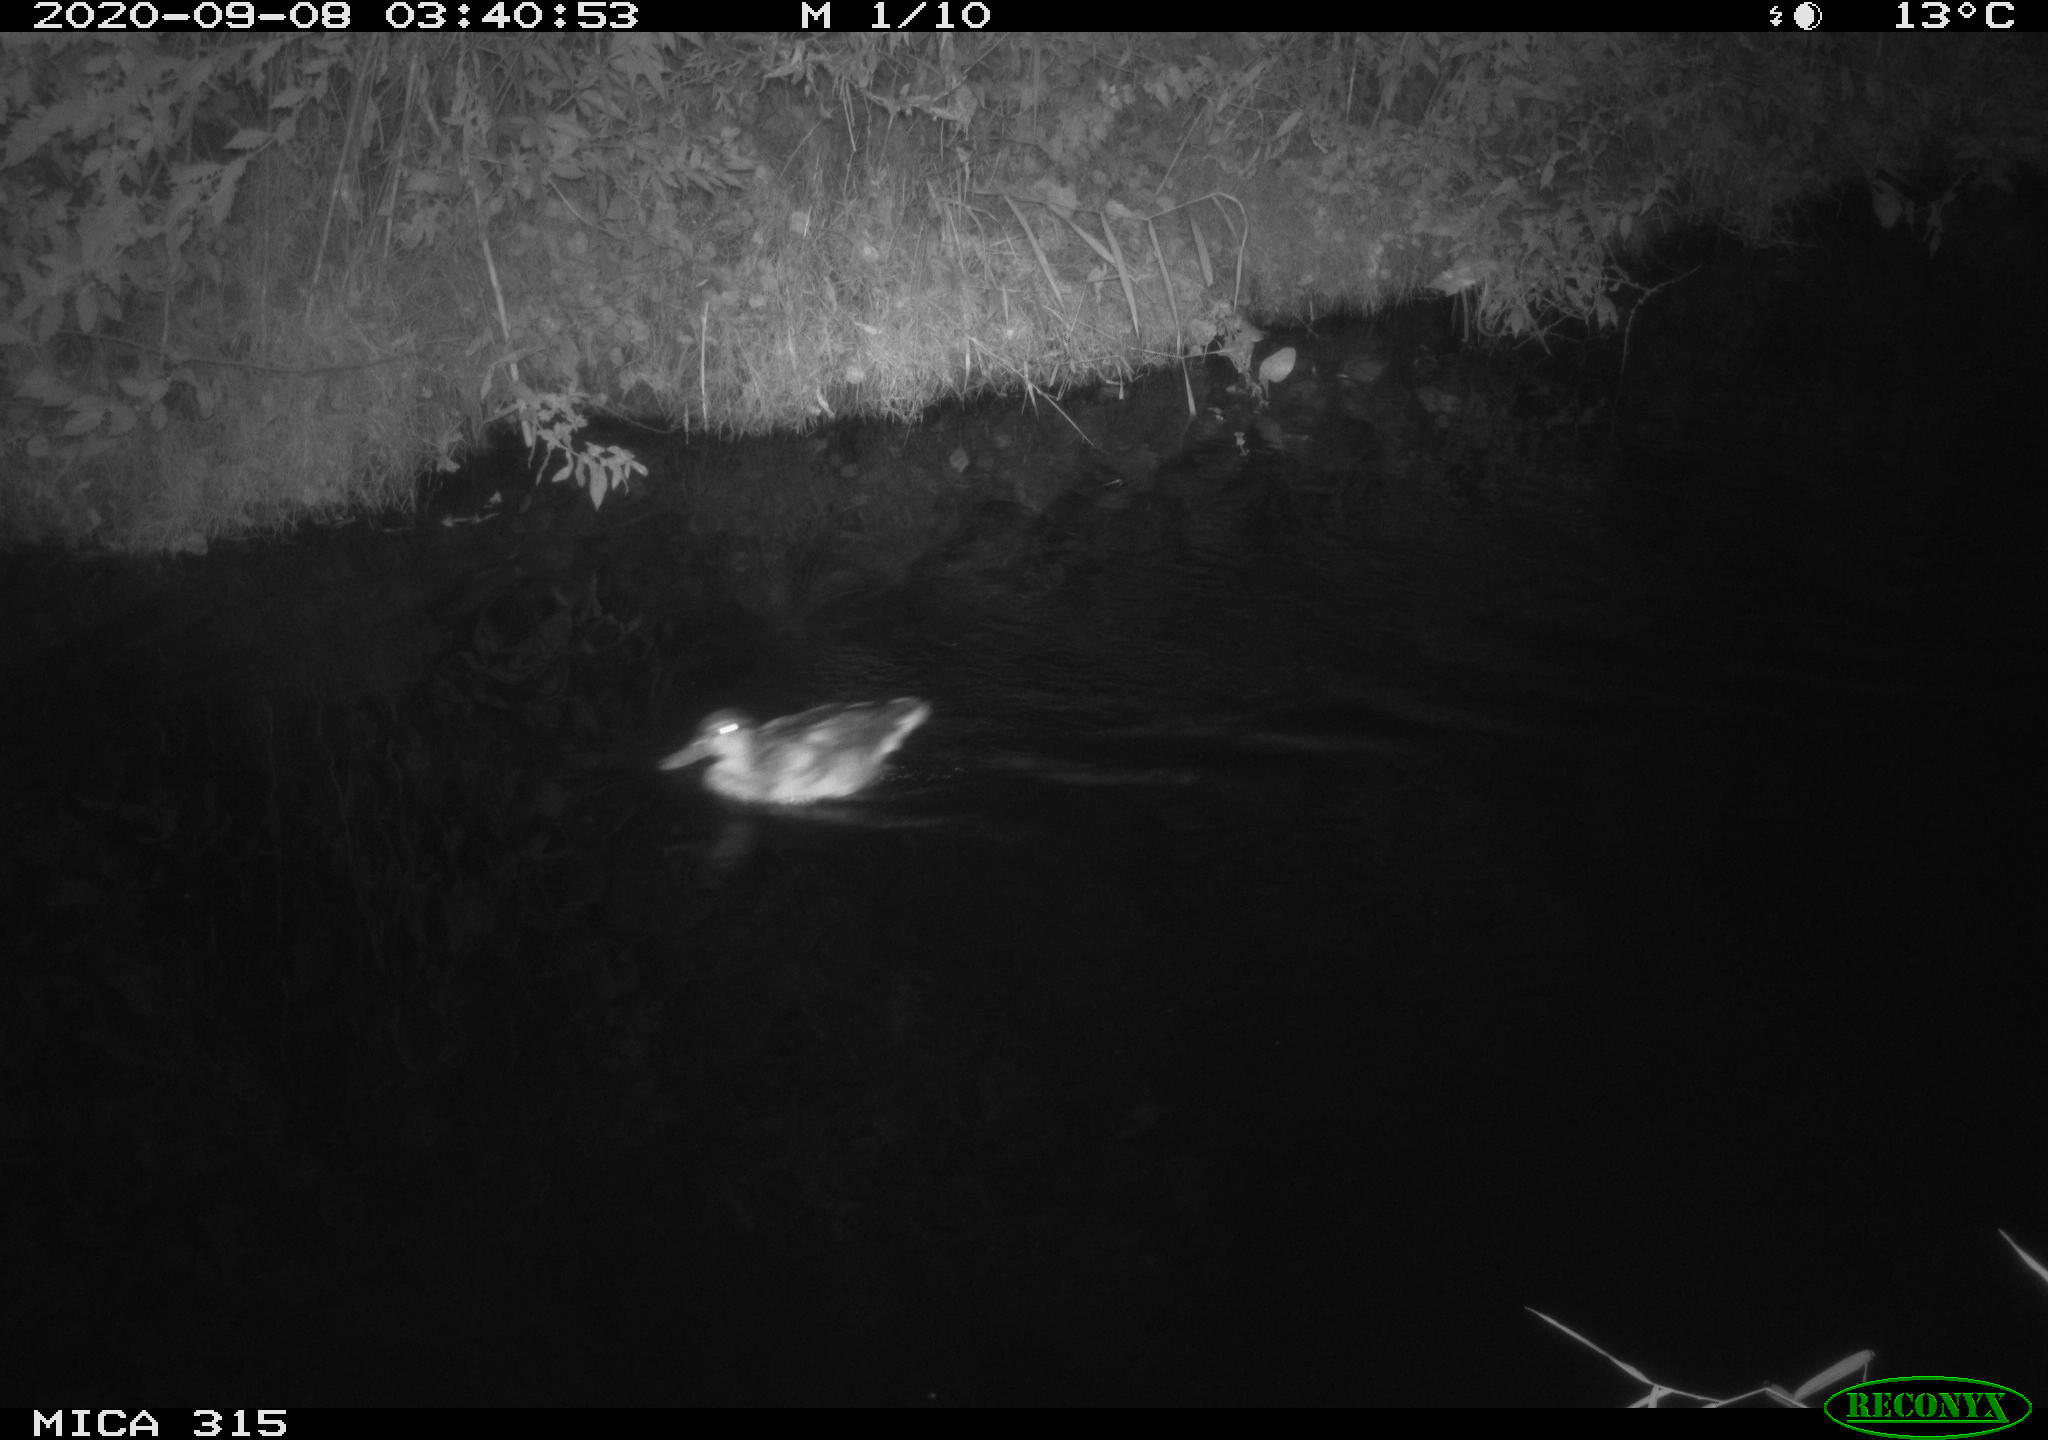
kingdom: Animalia
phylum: Chordata
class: Aves
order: Anseriformes
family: Anatidae
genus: Anas
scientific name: Anas platyrhynchos
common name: Mallard
